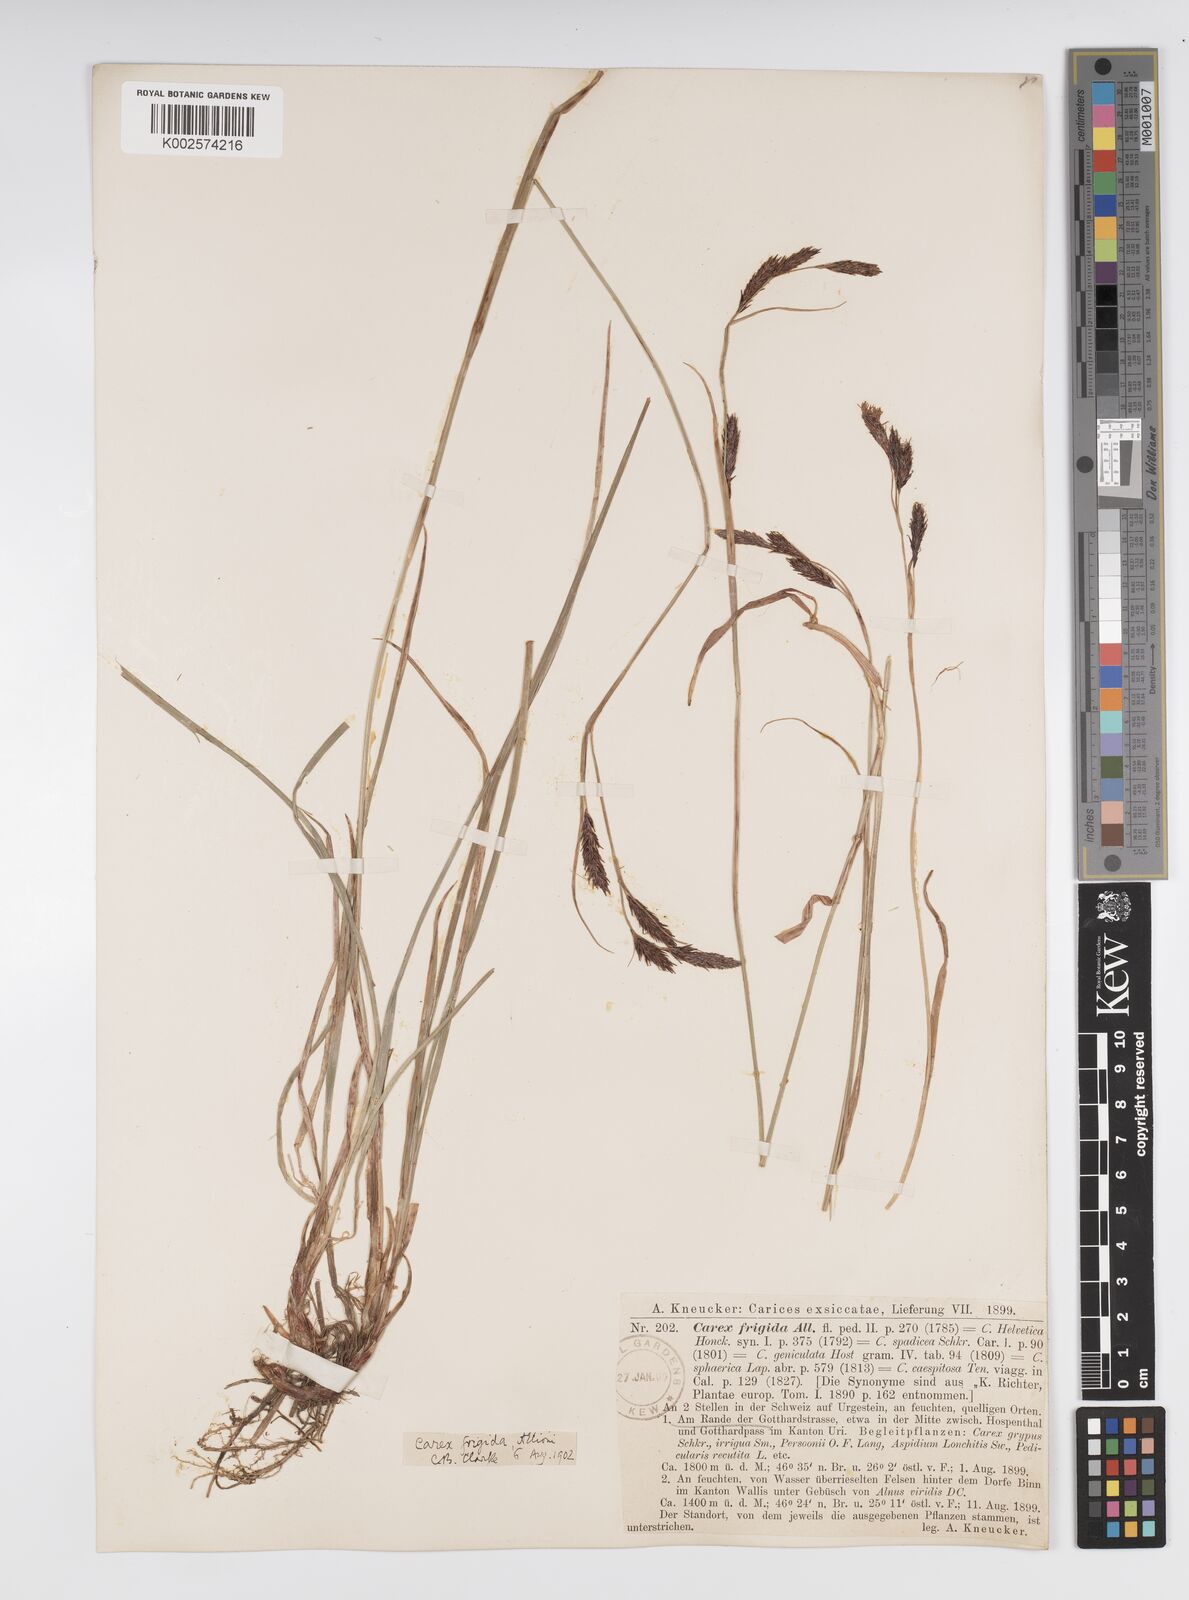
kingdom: Plantae
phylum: Tracheophyta
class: Liliopsida
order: Poales
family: Cyperaceae
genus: Carex
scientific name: Carex frigida
